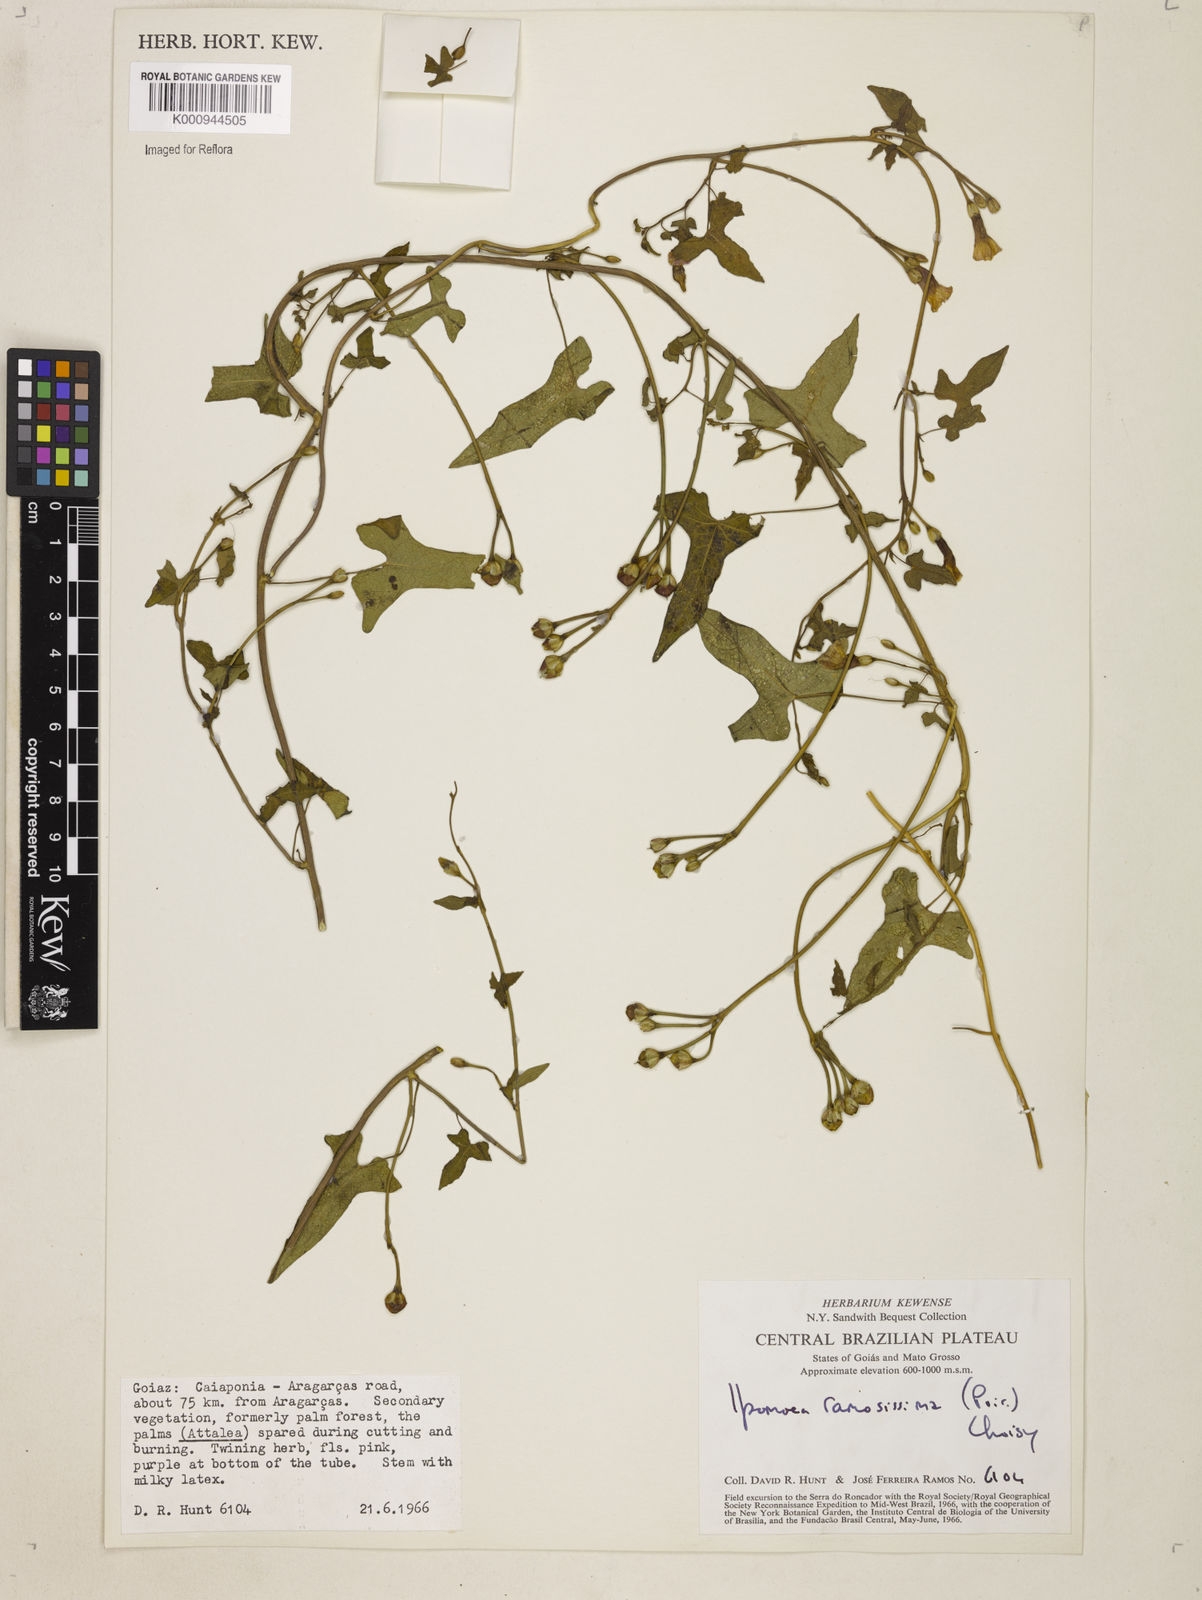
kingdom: Plantae
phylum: Tracheophyta
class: Magnoliopsida
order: Solanales
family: Convolvulaceae
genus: Ipomoea
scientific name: Ipomoea ramosissima
